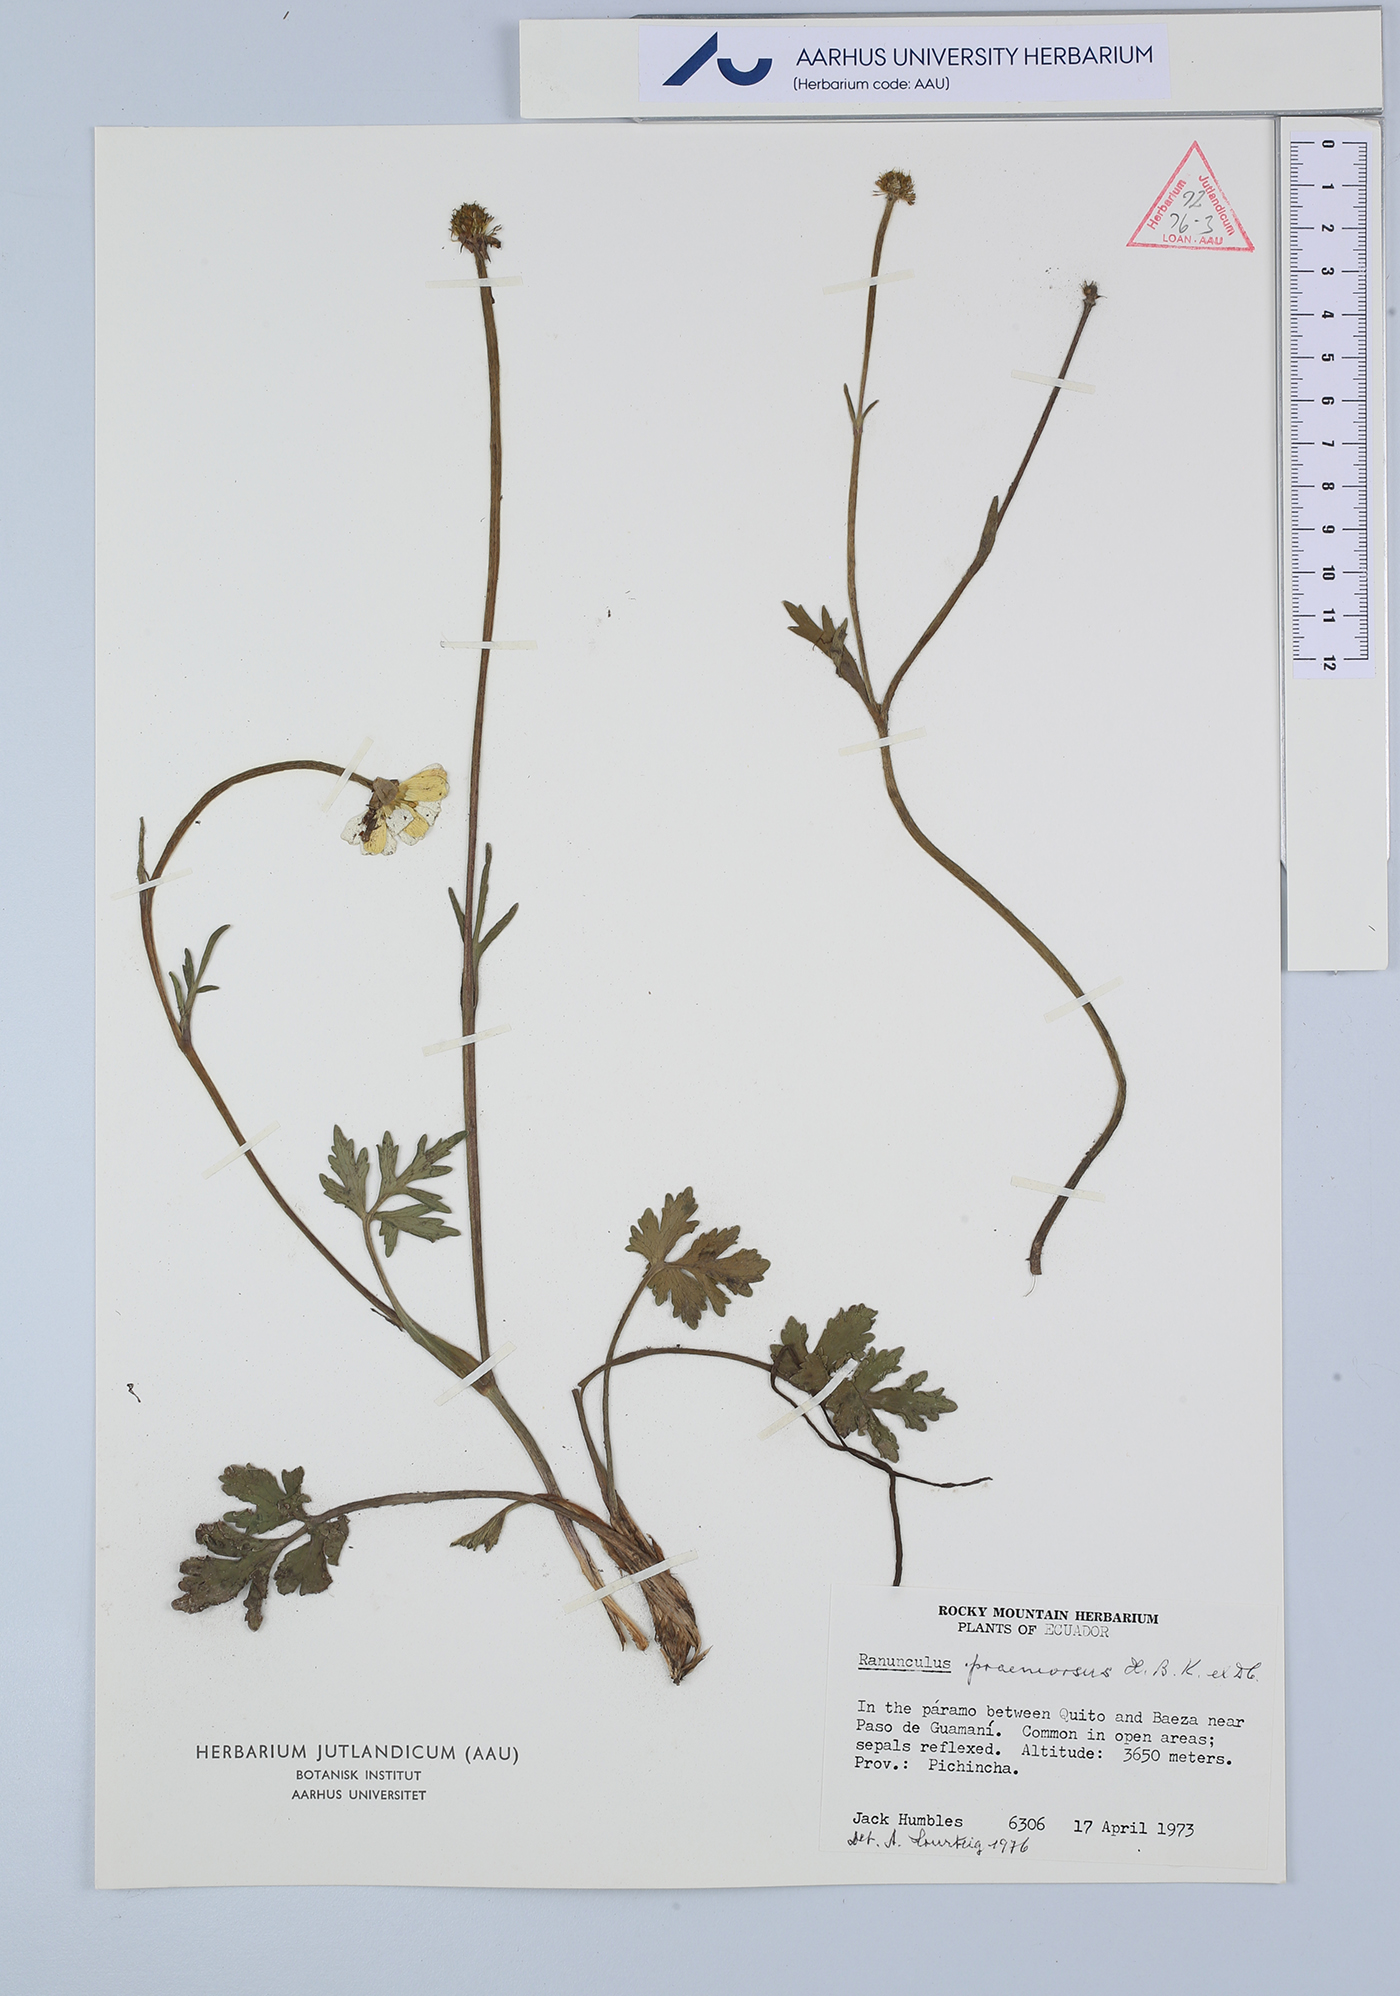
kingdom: Plantae
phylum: Tracheophyta
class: Magnoliopsida
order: Ranunculales
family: Ranunculaceae
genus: Ranunculus
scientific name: Ranunculus praemorsus
